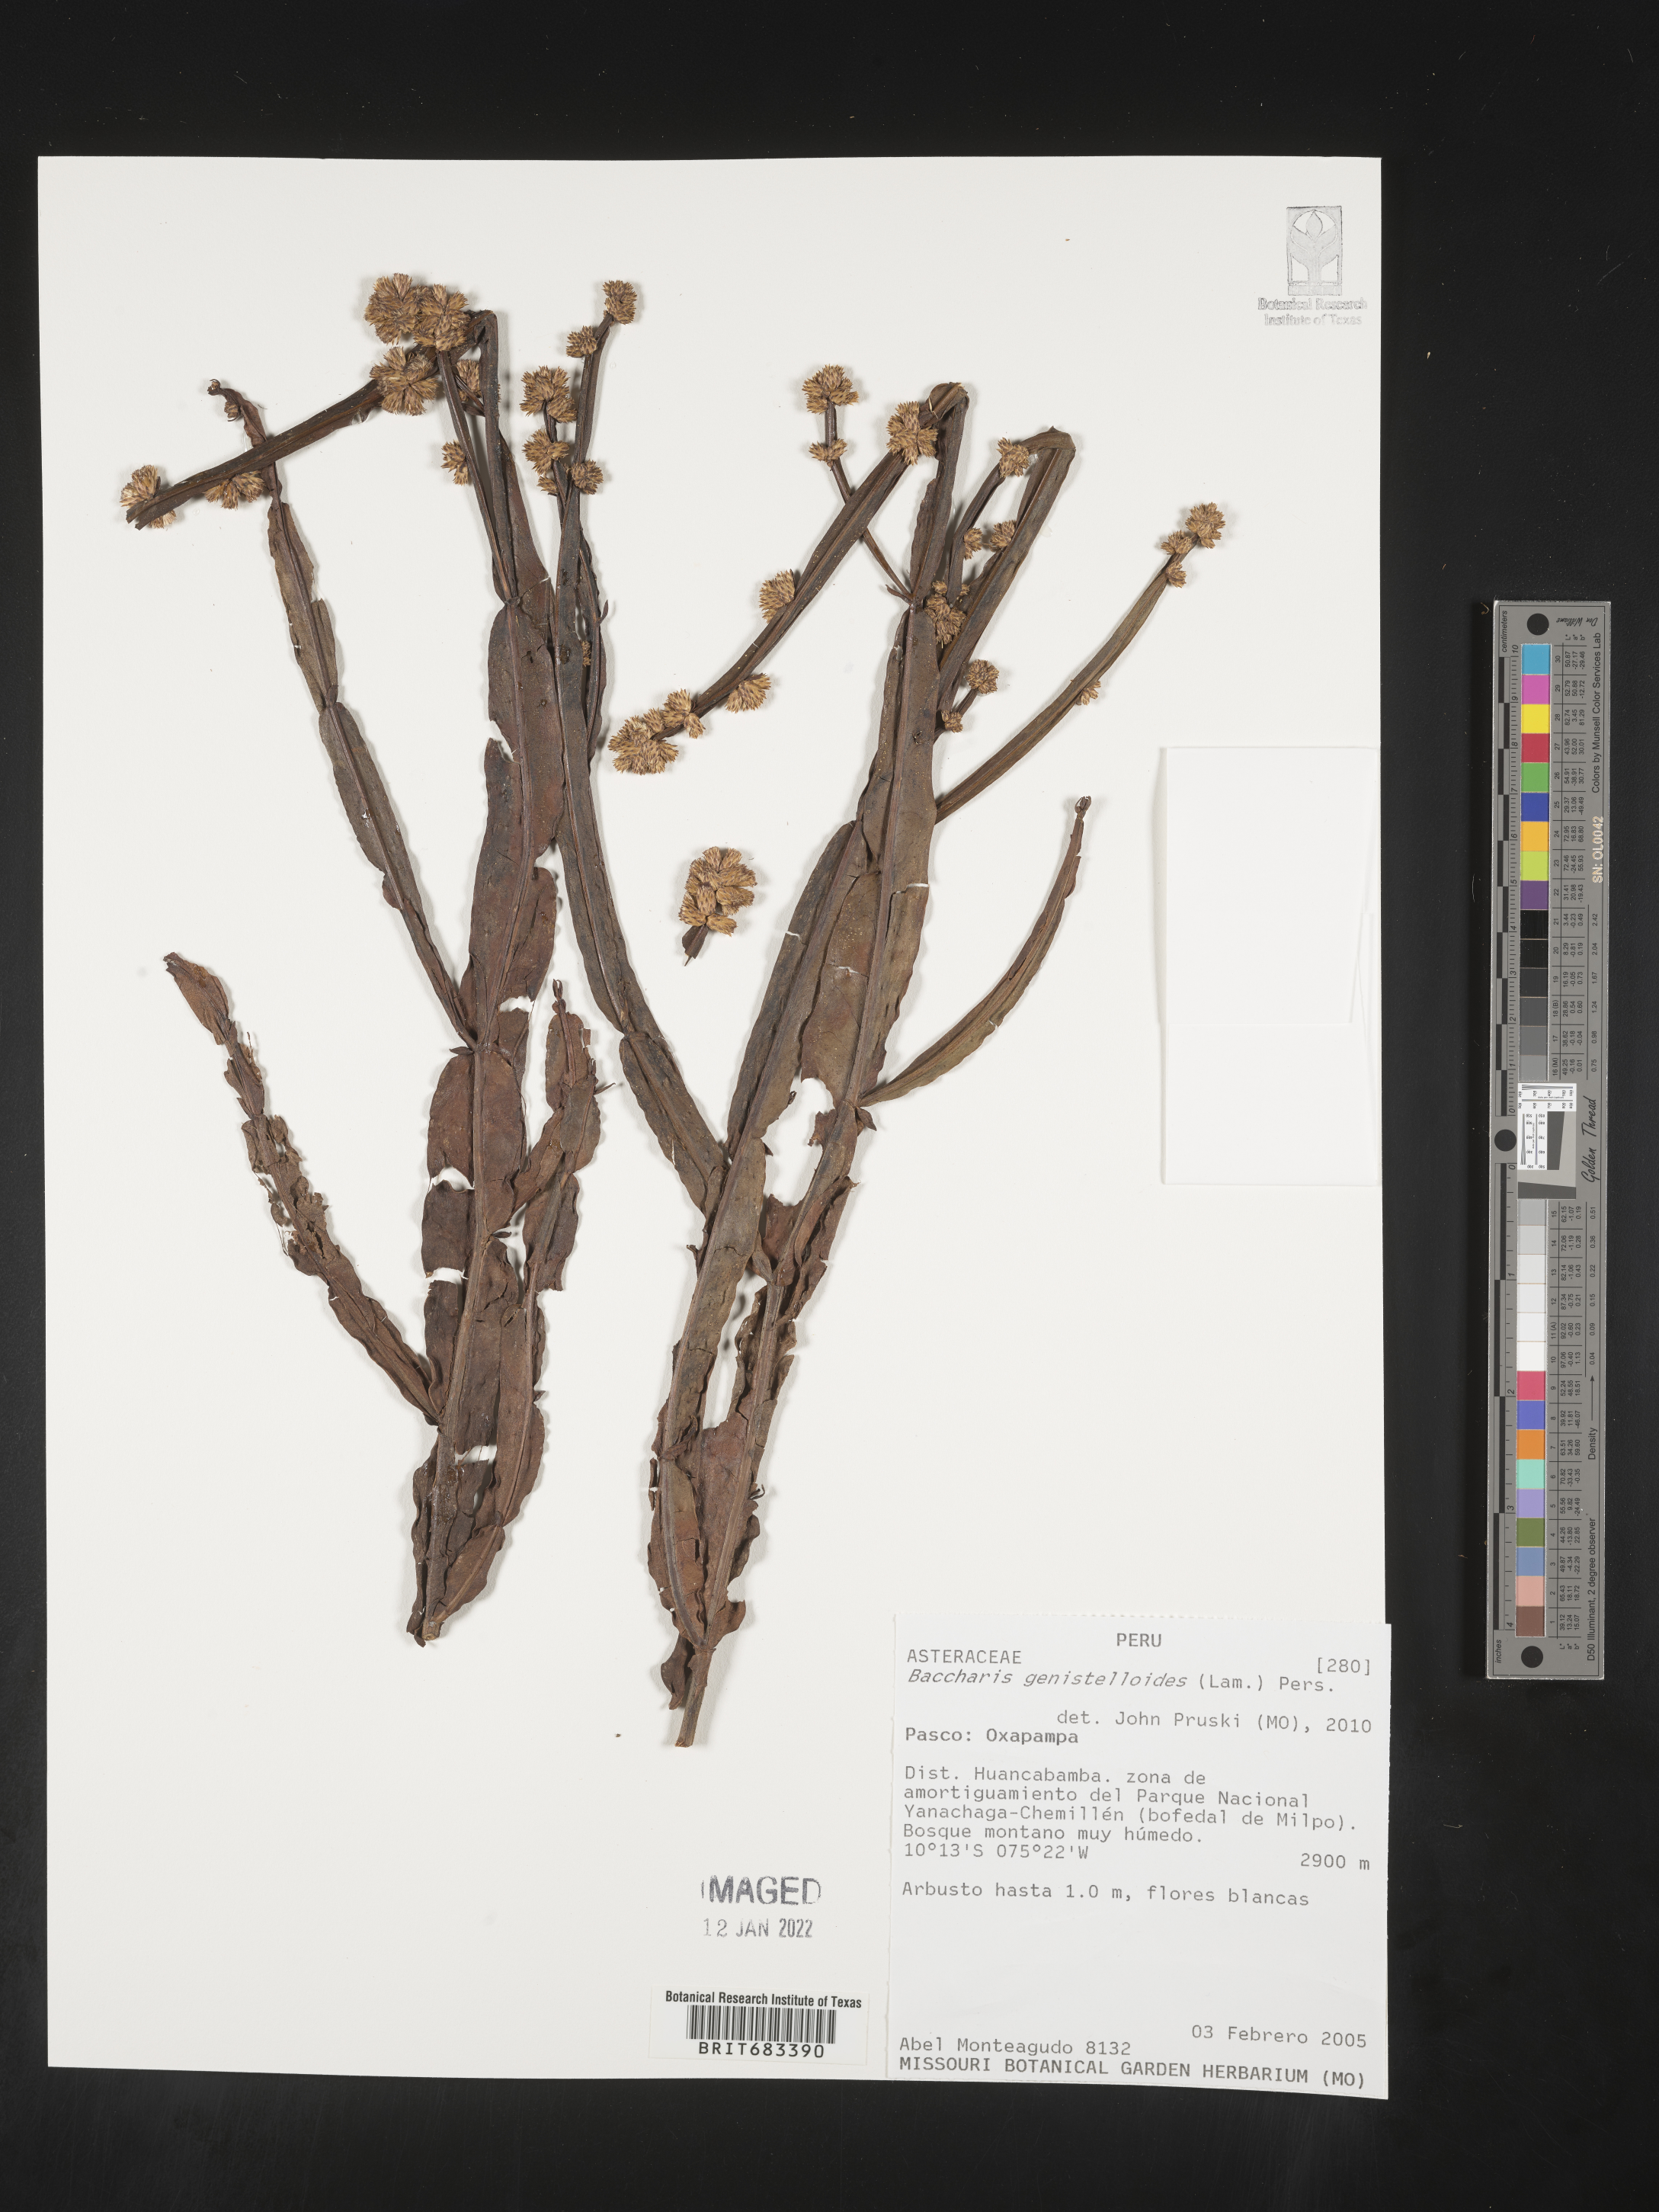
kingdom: Plantae
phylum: Tracheophyta
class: Magnoliopsida
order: Asterales
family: Asteraceae
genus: Baccharis
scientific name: Baccharis
